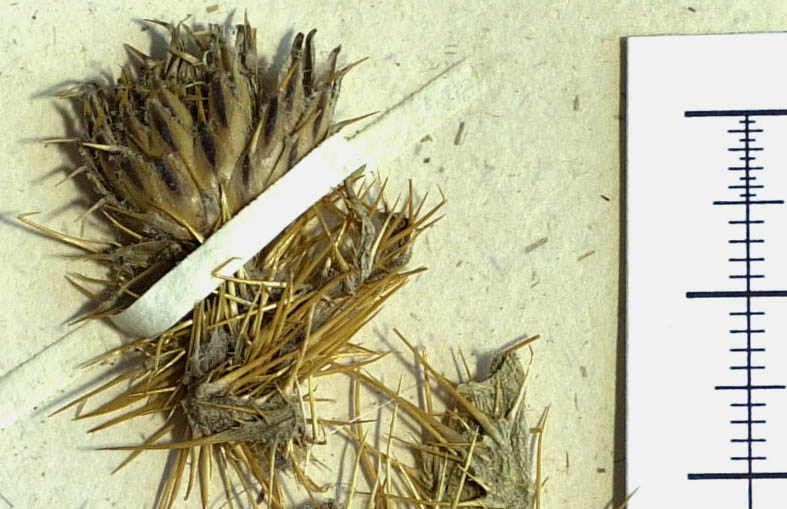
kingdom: Plantae
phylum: Tracheophyta
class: Magnoliopsida
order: Asterales
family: Asteraceae
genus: Cirsium
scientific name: Cirsium libanoticum
